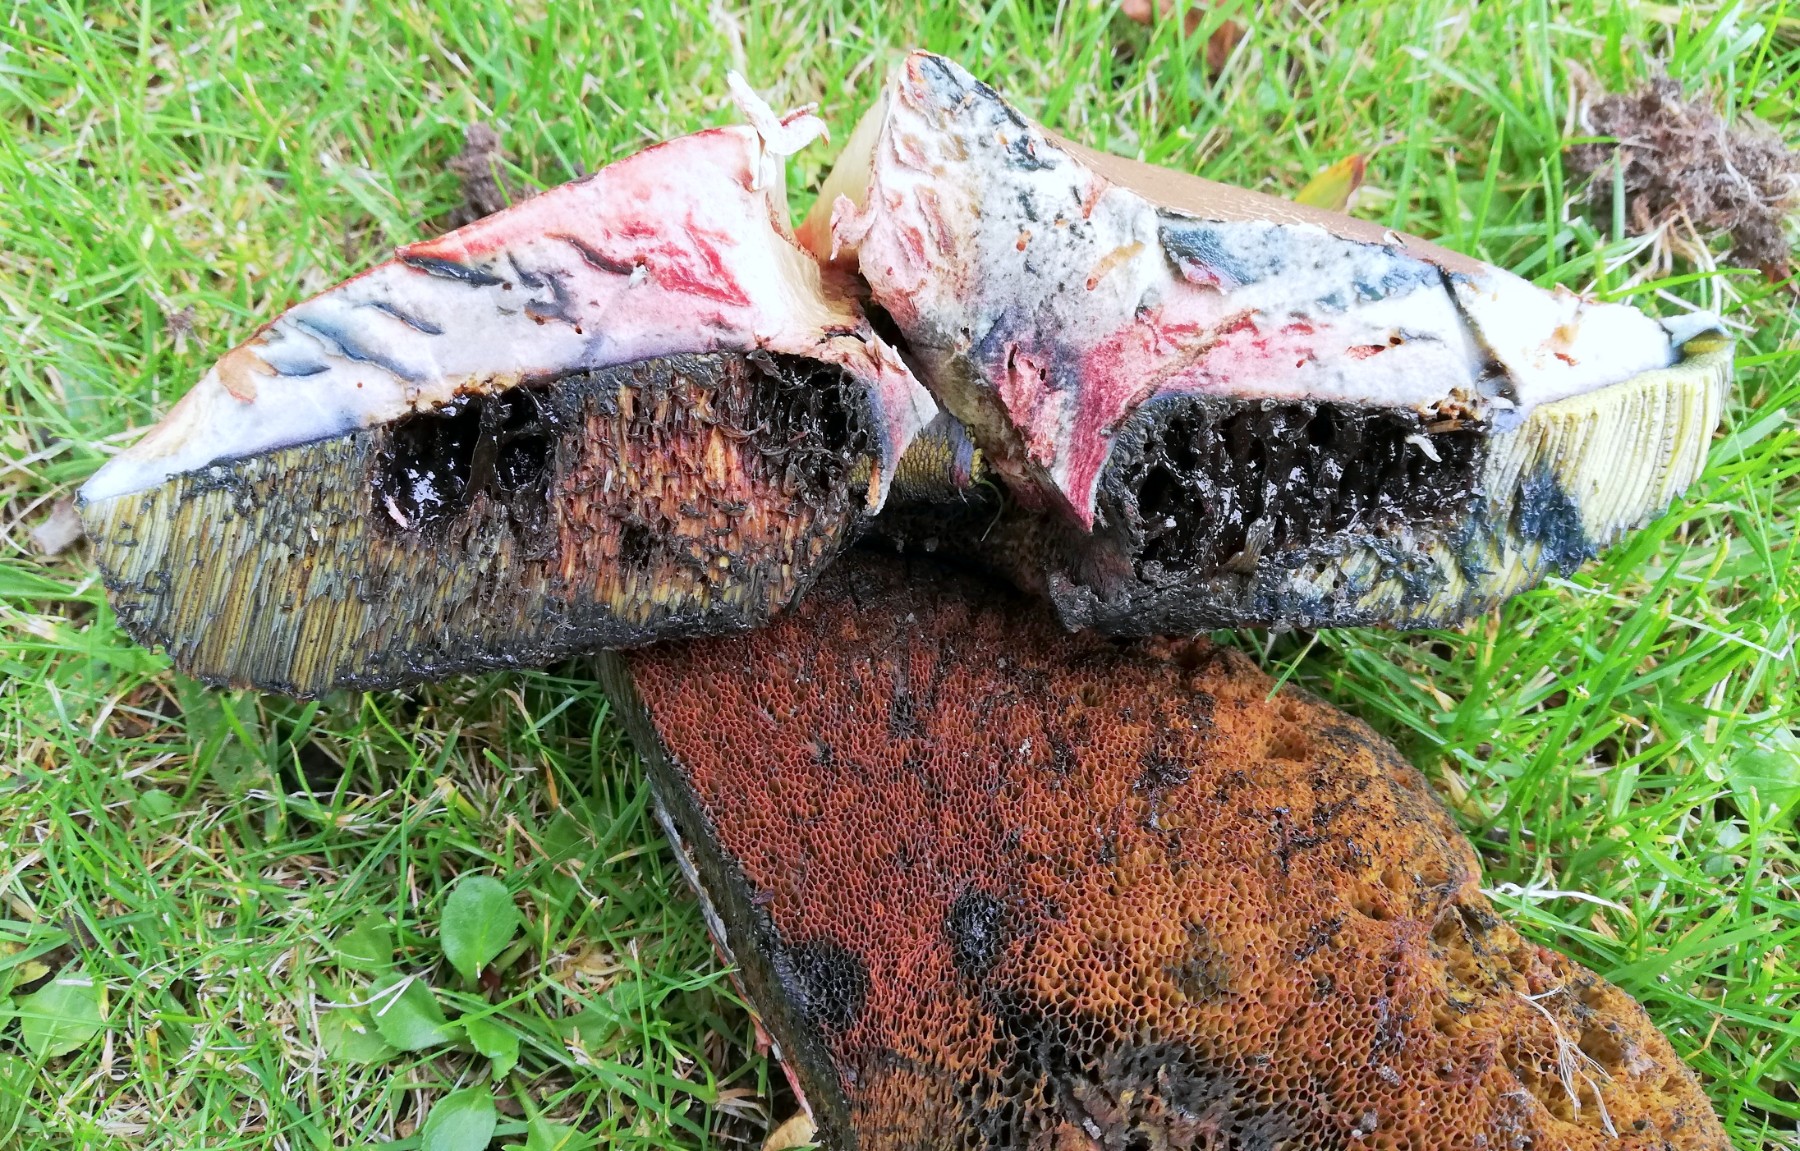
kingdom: Fungi
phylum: Basidiomycota
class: Agaricomycetes
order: Boletales
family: Boletaceae
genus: Suillellus
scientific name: Suillellus luridus
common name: netstokket indigorørhat
